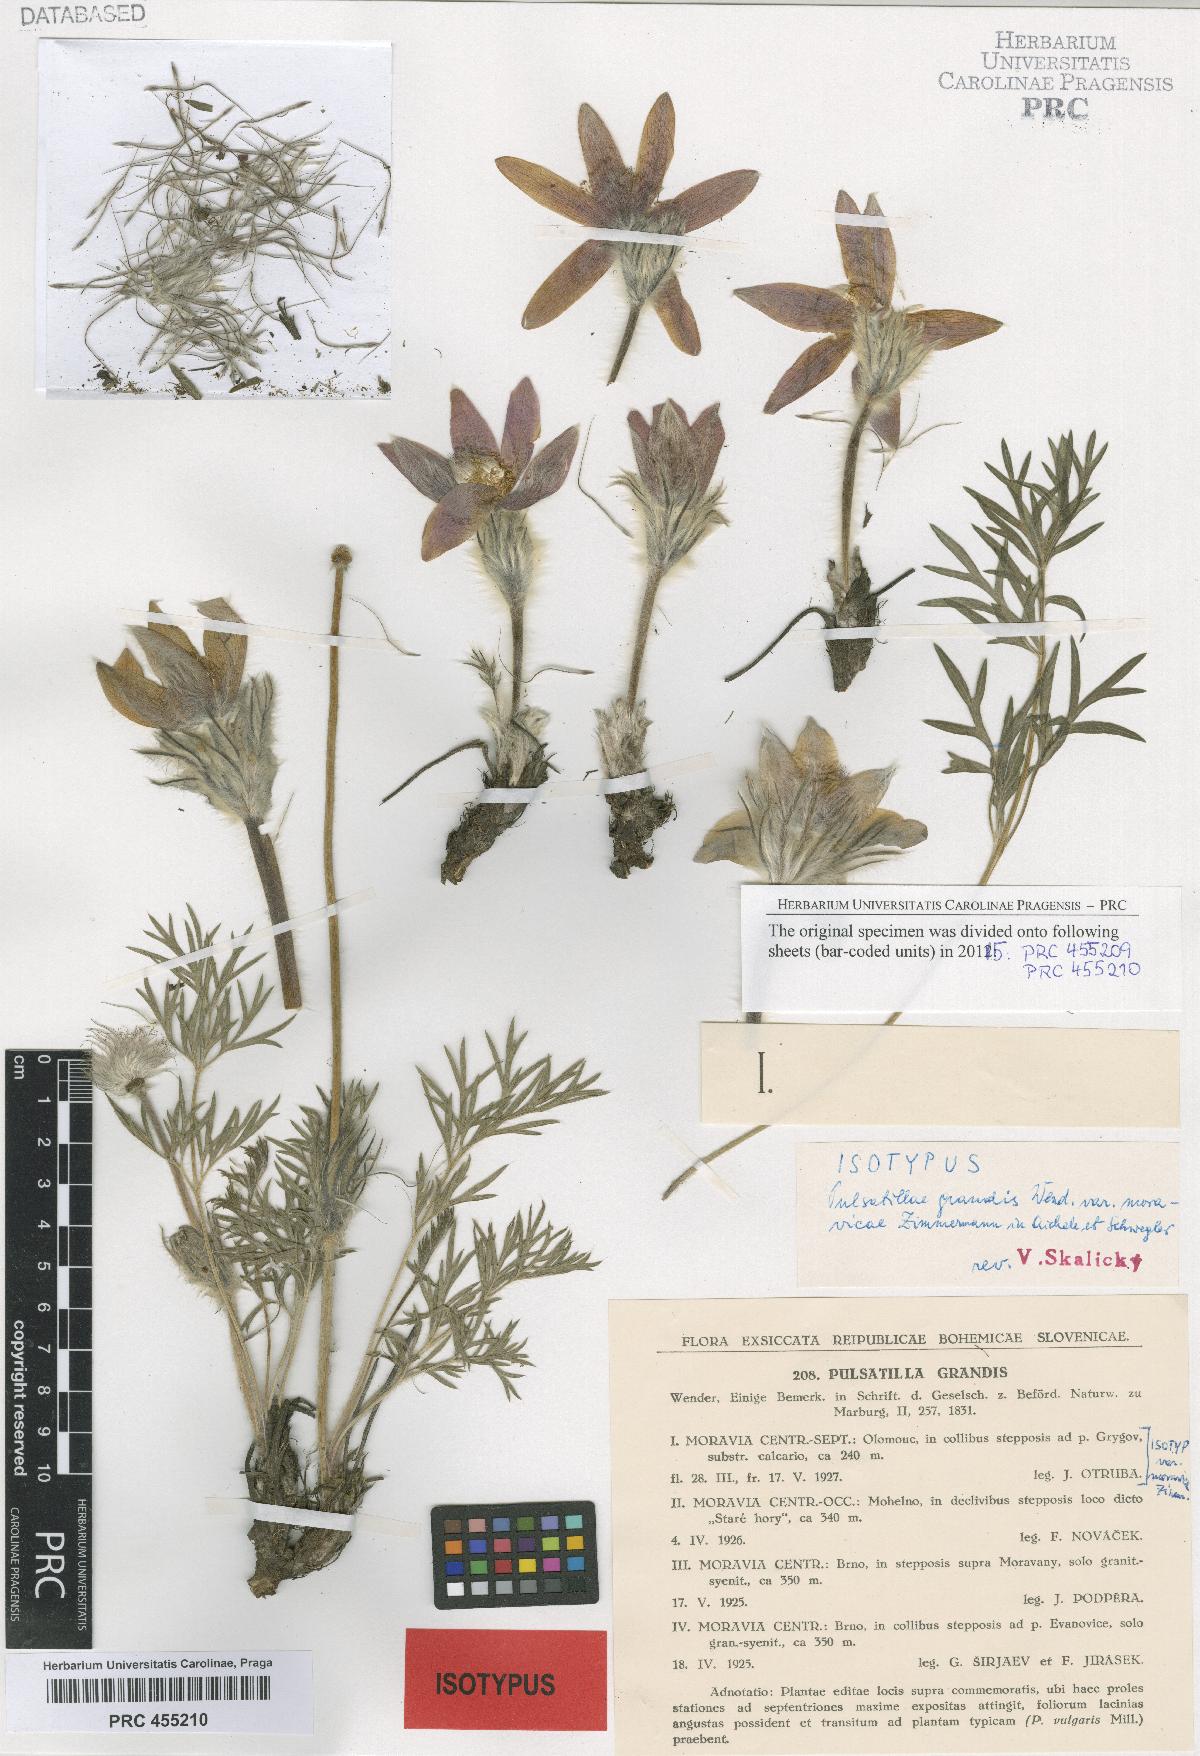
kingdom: Plantae
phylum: Tracheophyta
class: Magnoliopsida
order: Ranunculales
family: Ranunculaceae
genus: Pulsatilla
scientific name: Pulsatilla grandis
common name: Greater pasque flower
